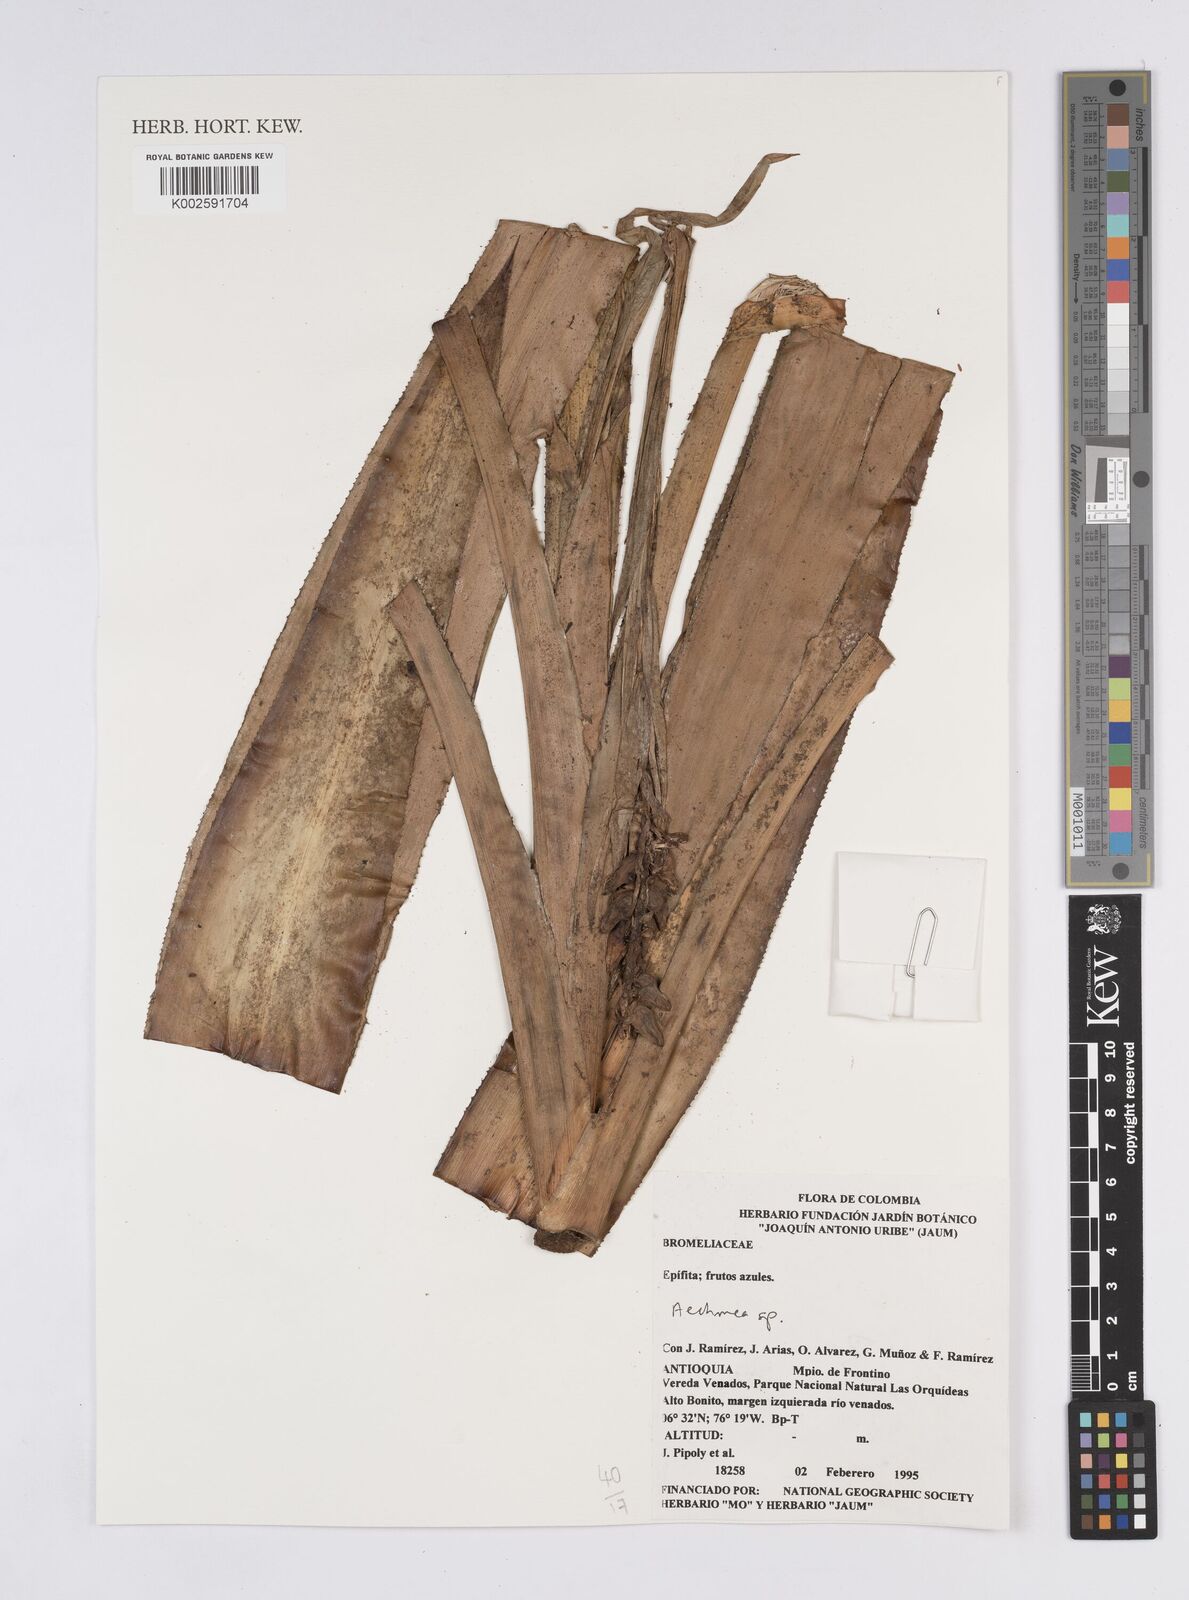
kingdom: Plantae
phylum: Tracheophyta
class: Liliopsida
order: Poales
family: Bromeliaceae
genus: Aechmea
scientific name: Aechmea
